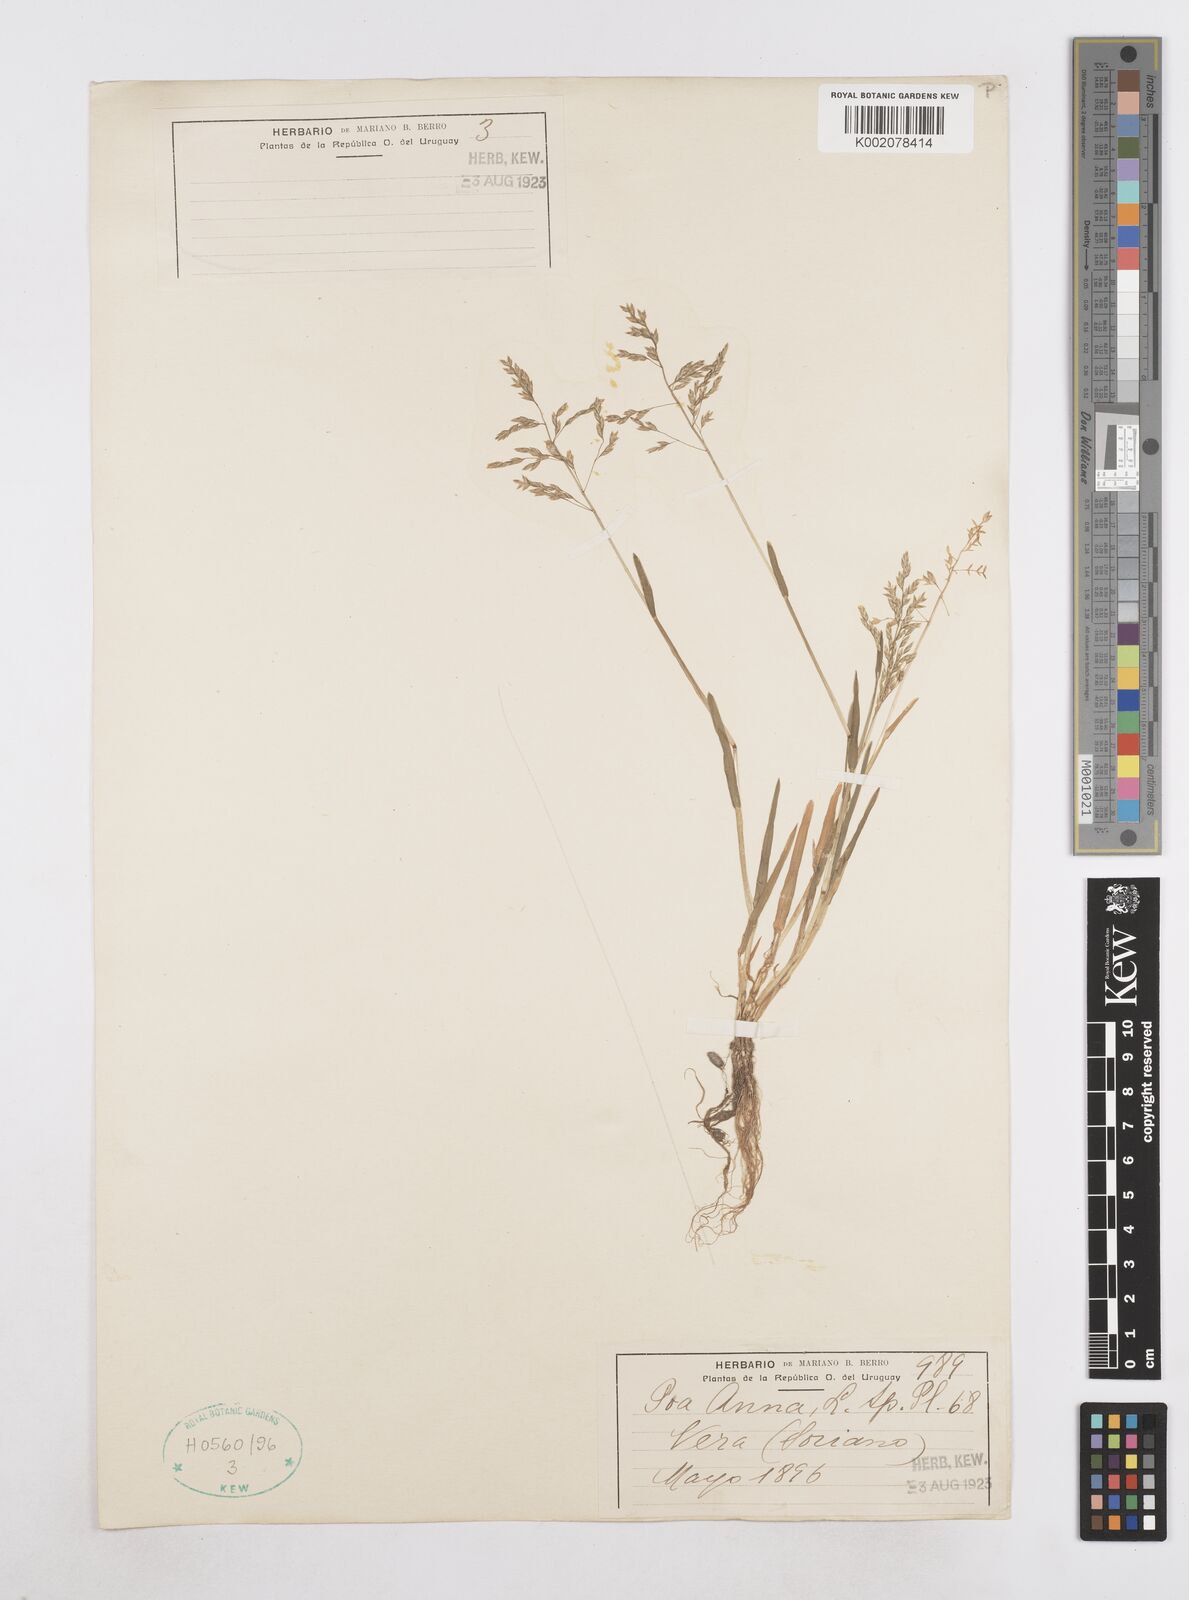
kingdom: Plantae
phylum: Tracheophyta
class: Liliopsida
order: Poales
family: Poaceae
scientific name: Poaceae
